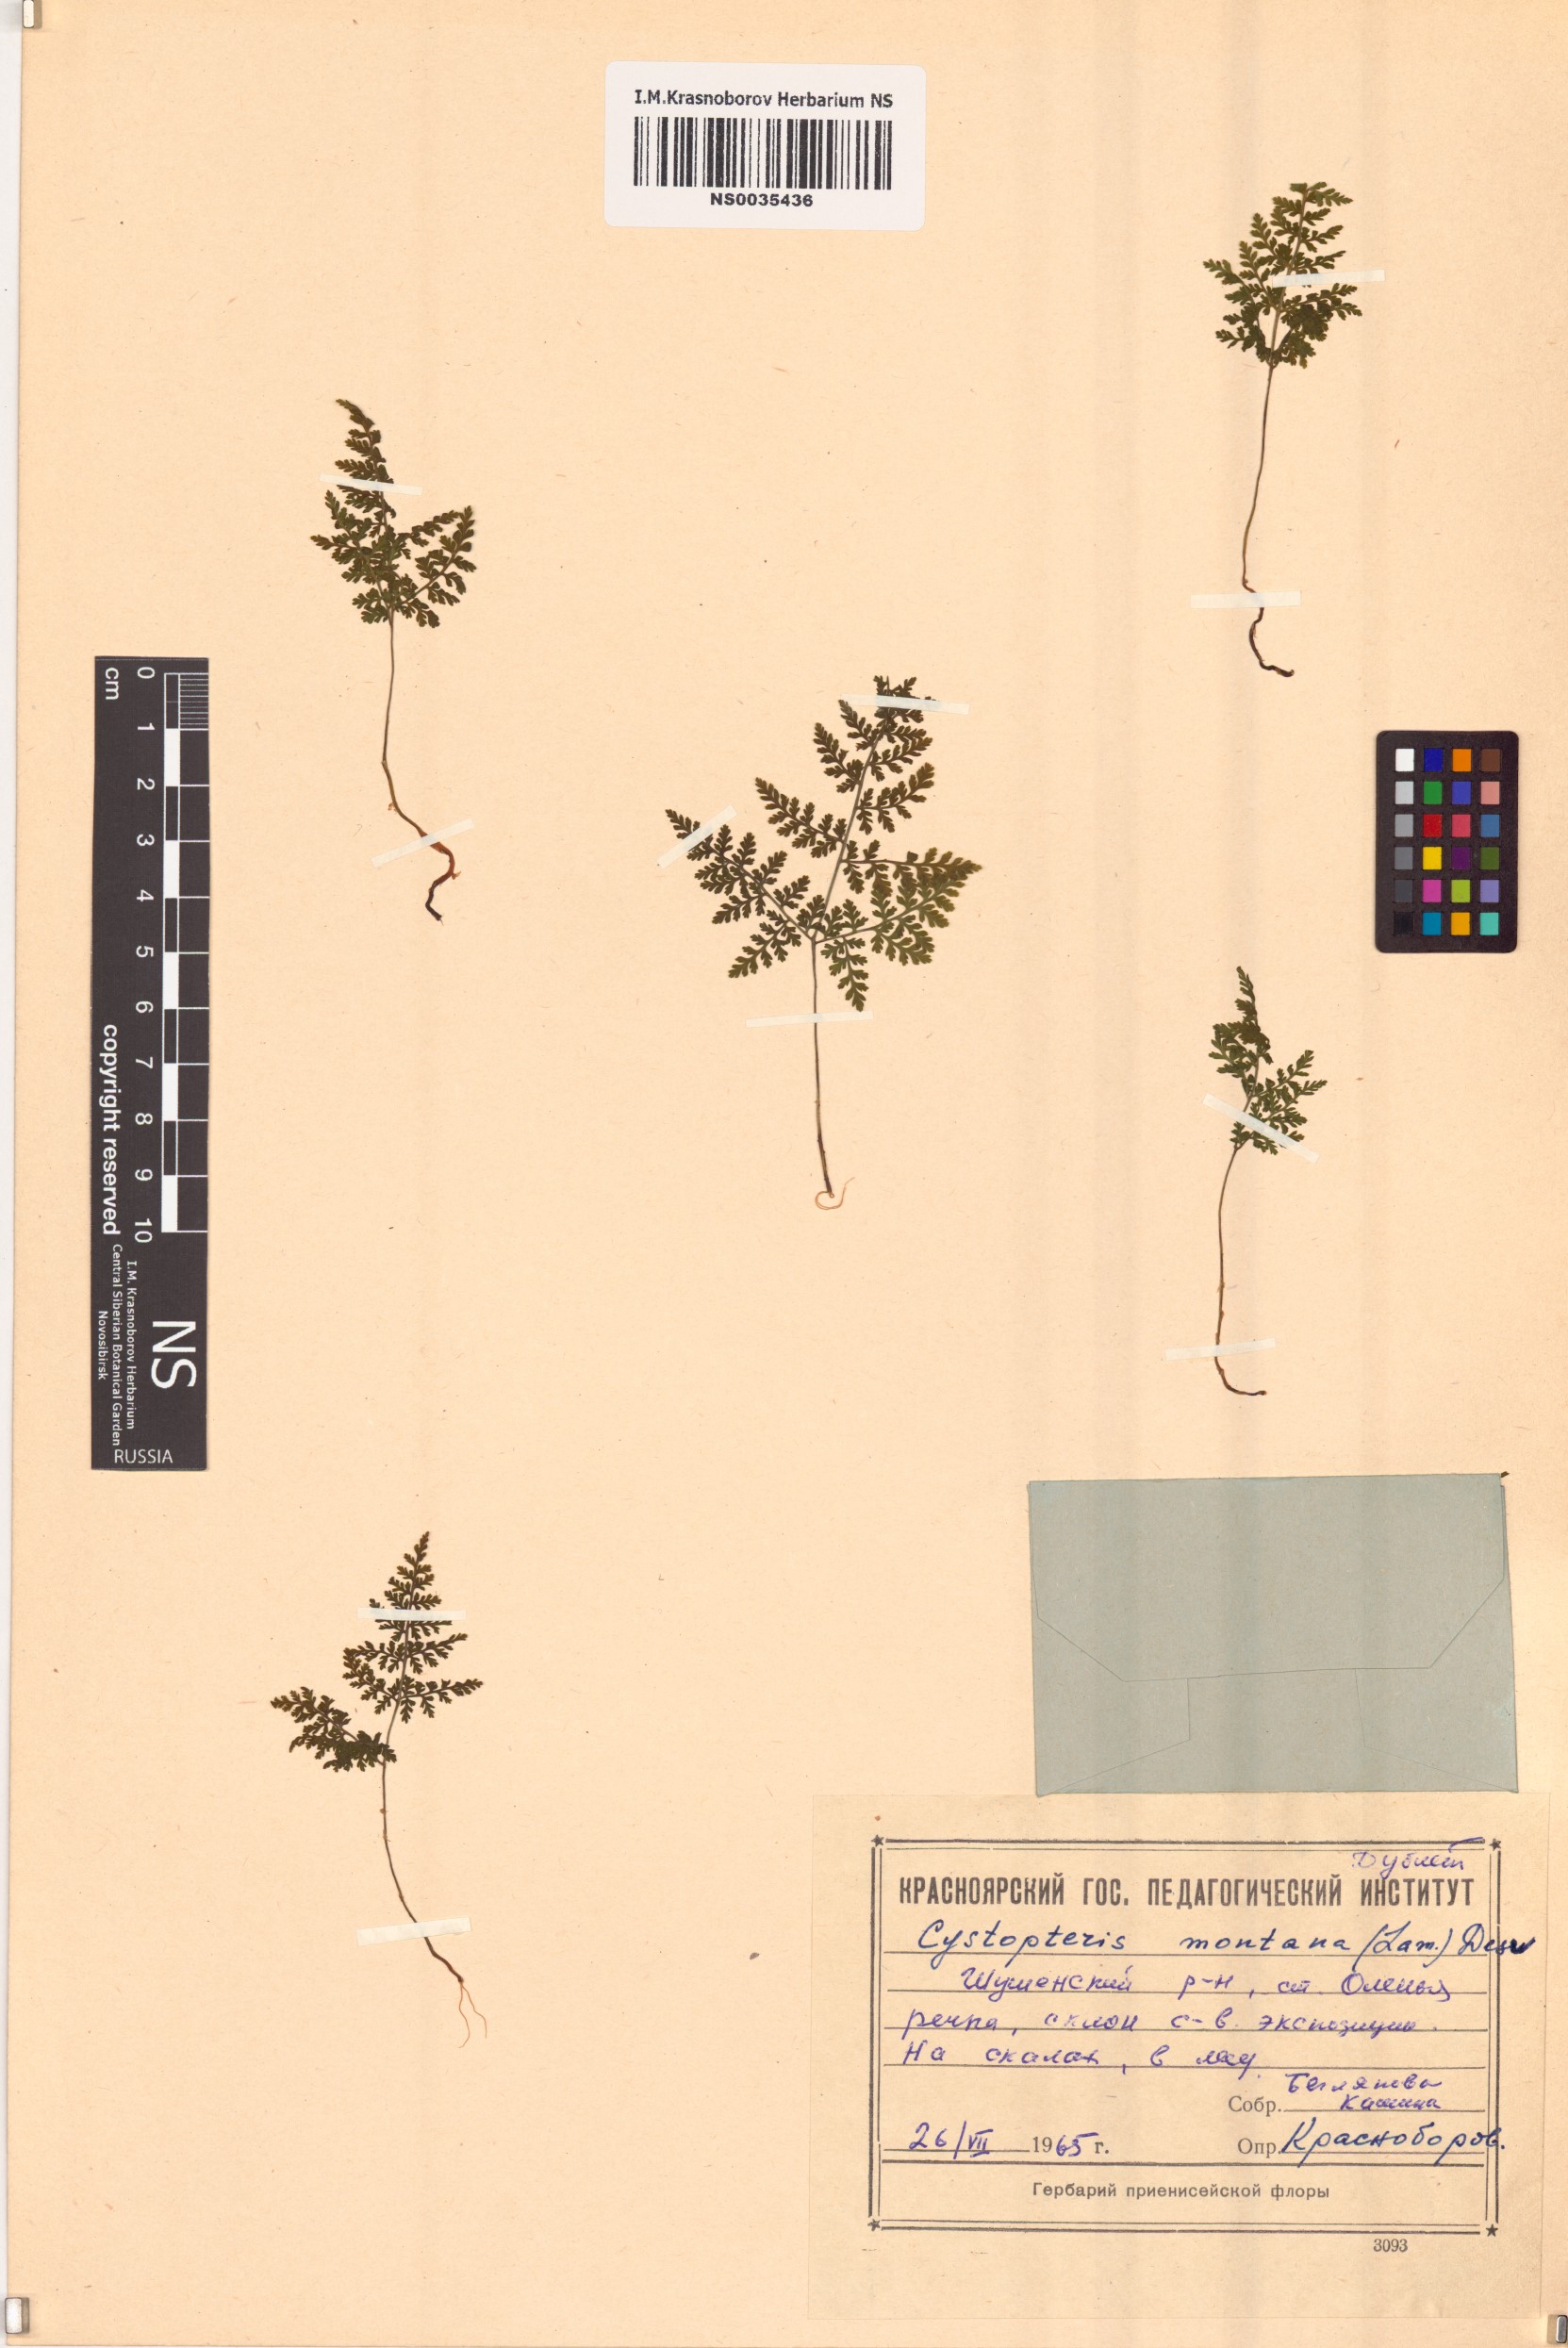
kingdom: Plantae
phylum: Tracheophyta
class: Polypodiopsida
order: Polypodiales
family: Cystopteridaceae
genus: Cystopteris
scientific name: Cystopteris montana
